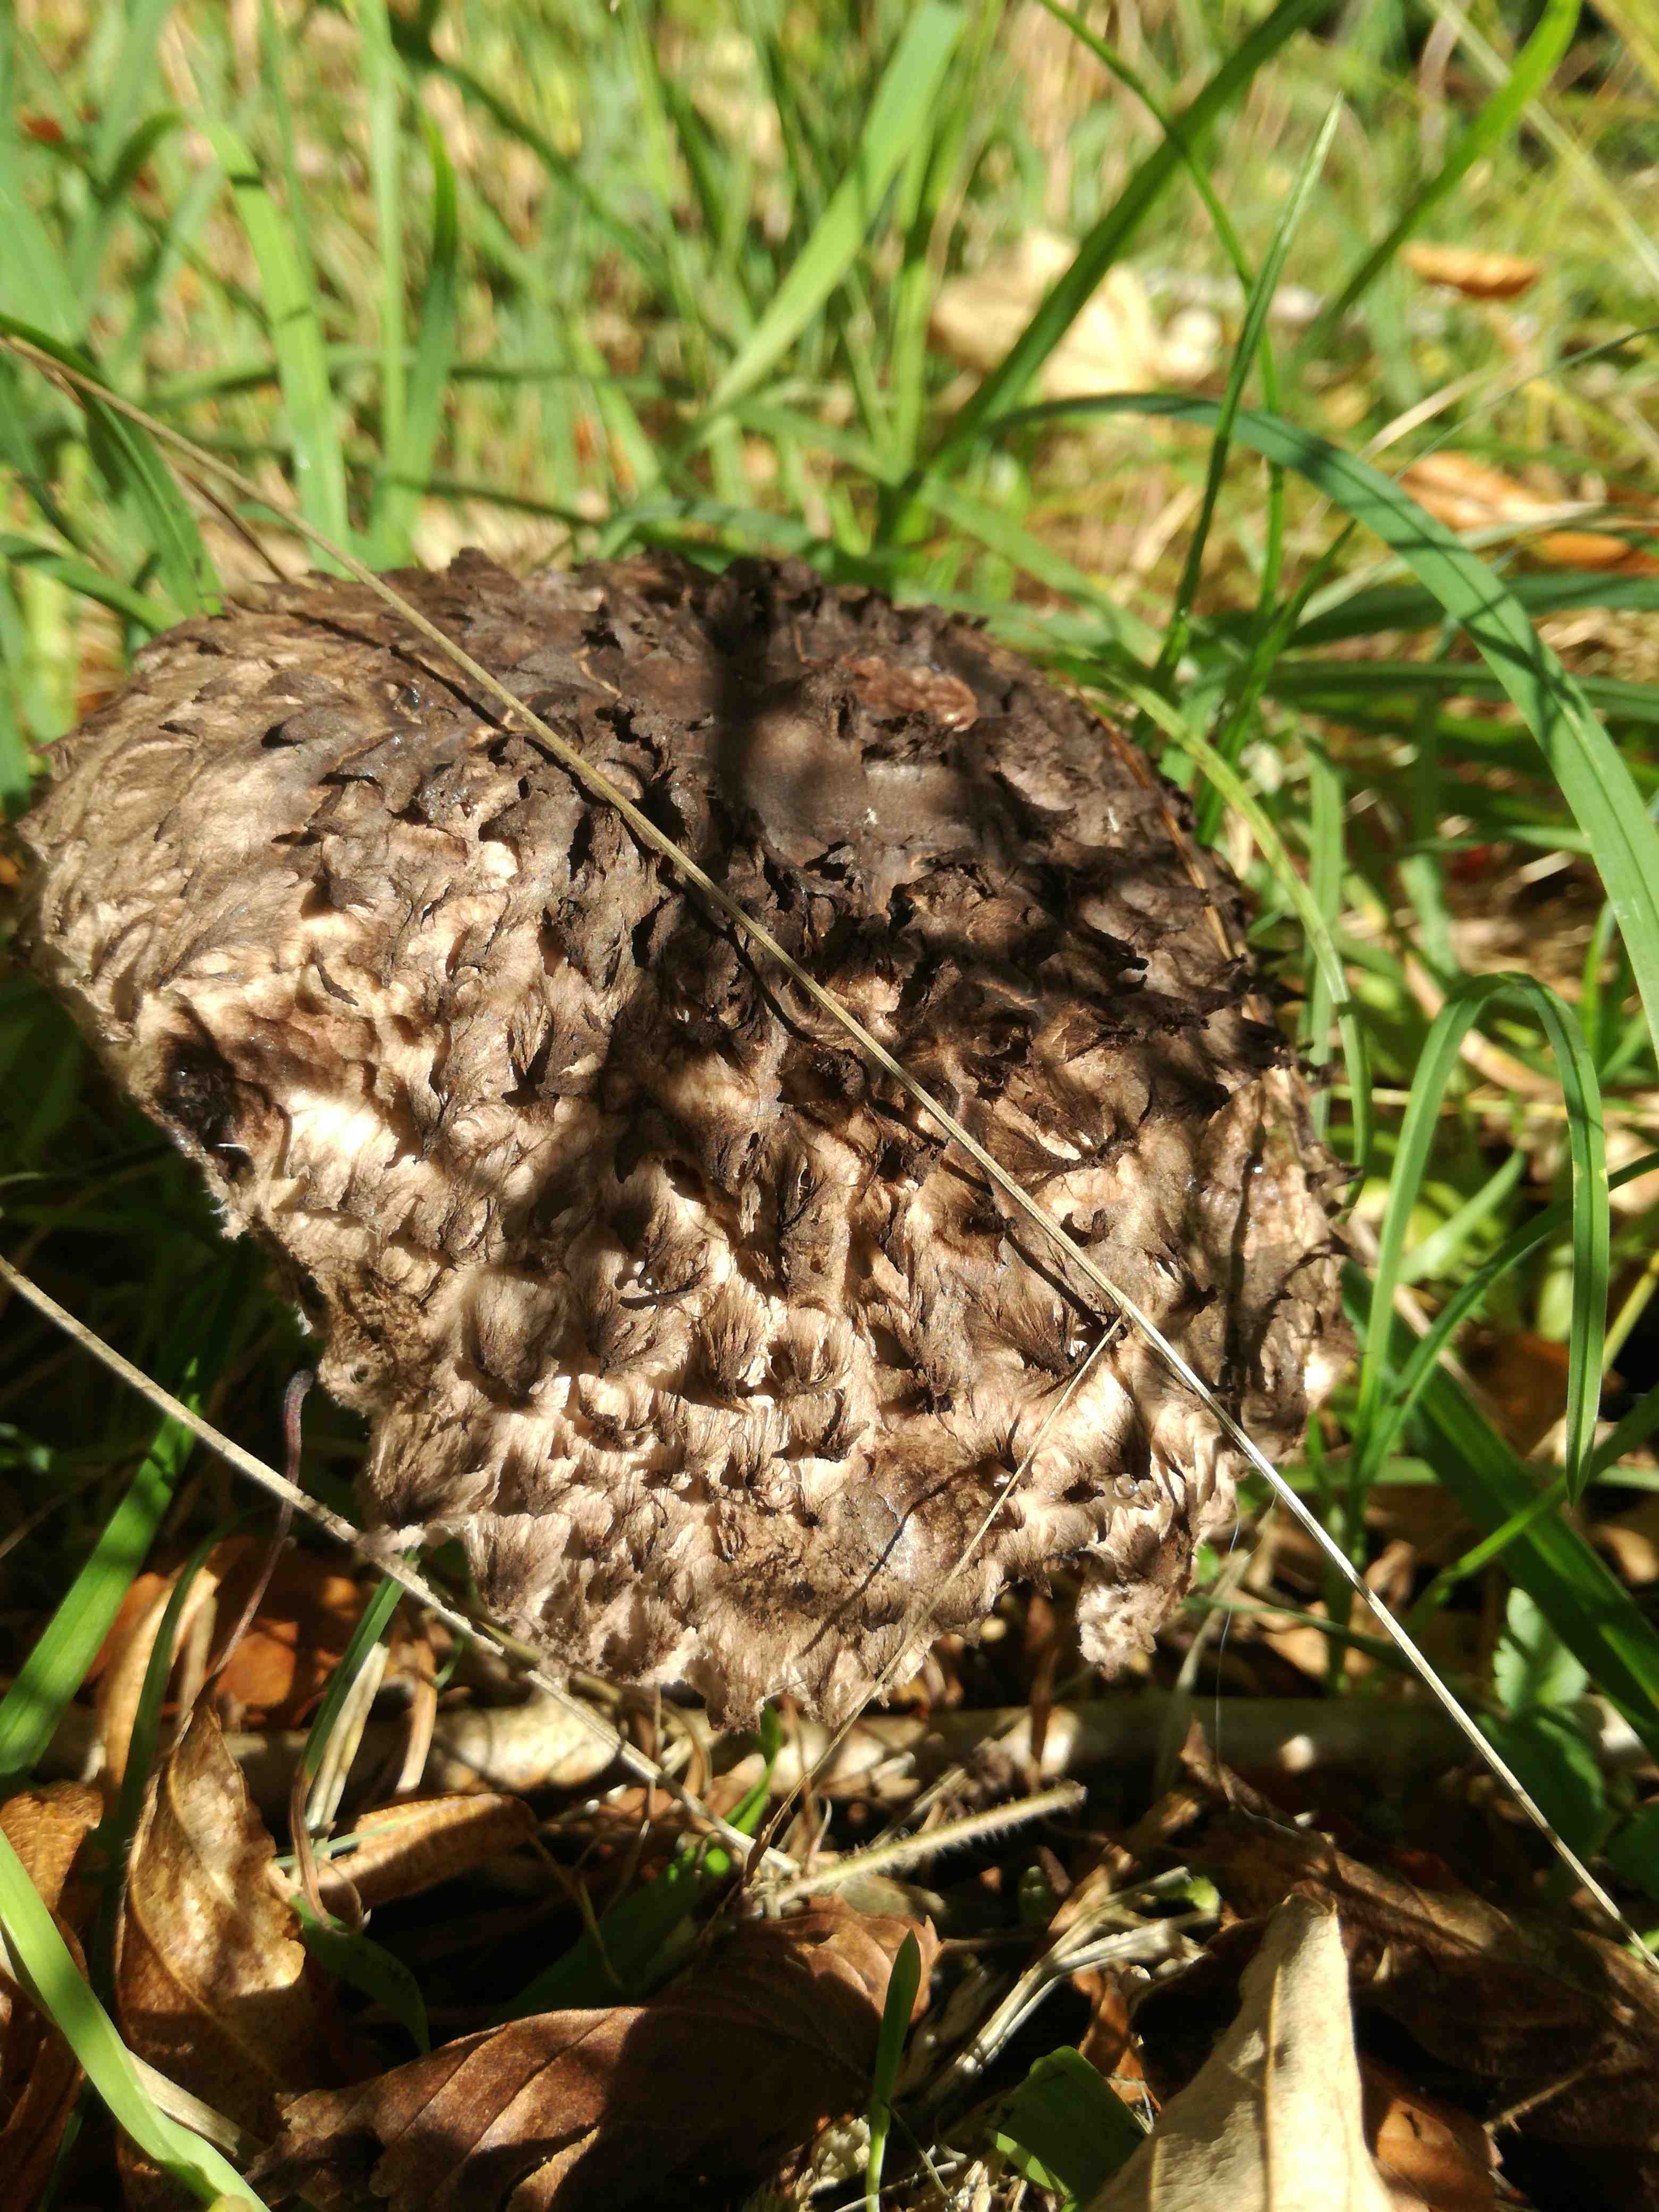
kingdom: Fungi
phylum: Basidiomycota
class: Agaricomycetes
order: Boletales
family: Boletaceae
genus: Strobilomyces
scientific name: Strobilomyces strobilaceus
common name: koglerørhat
